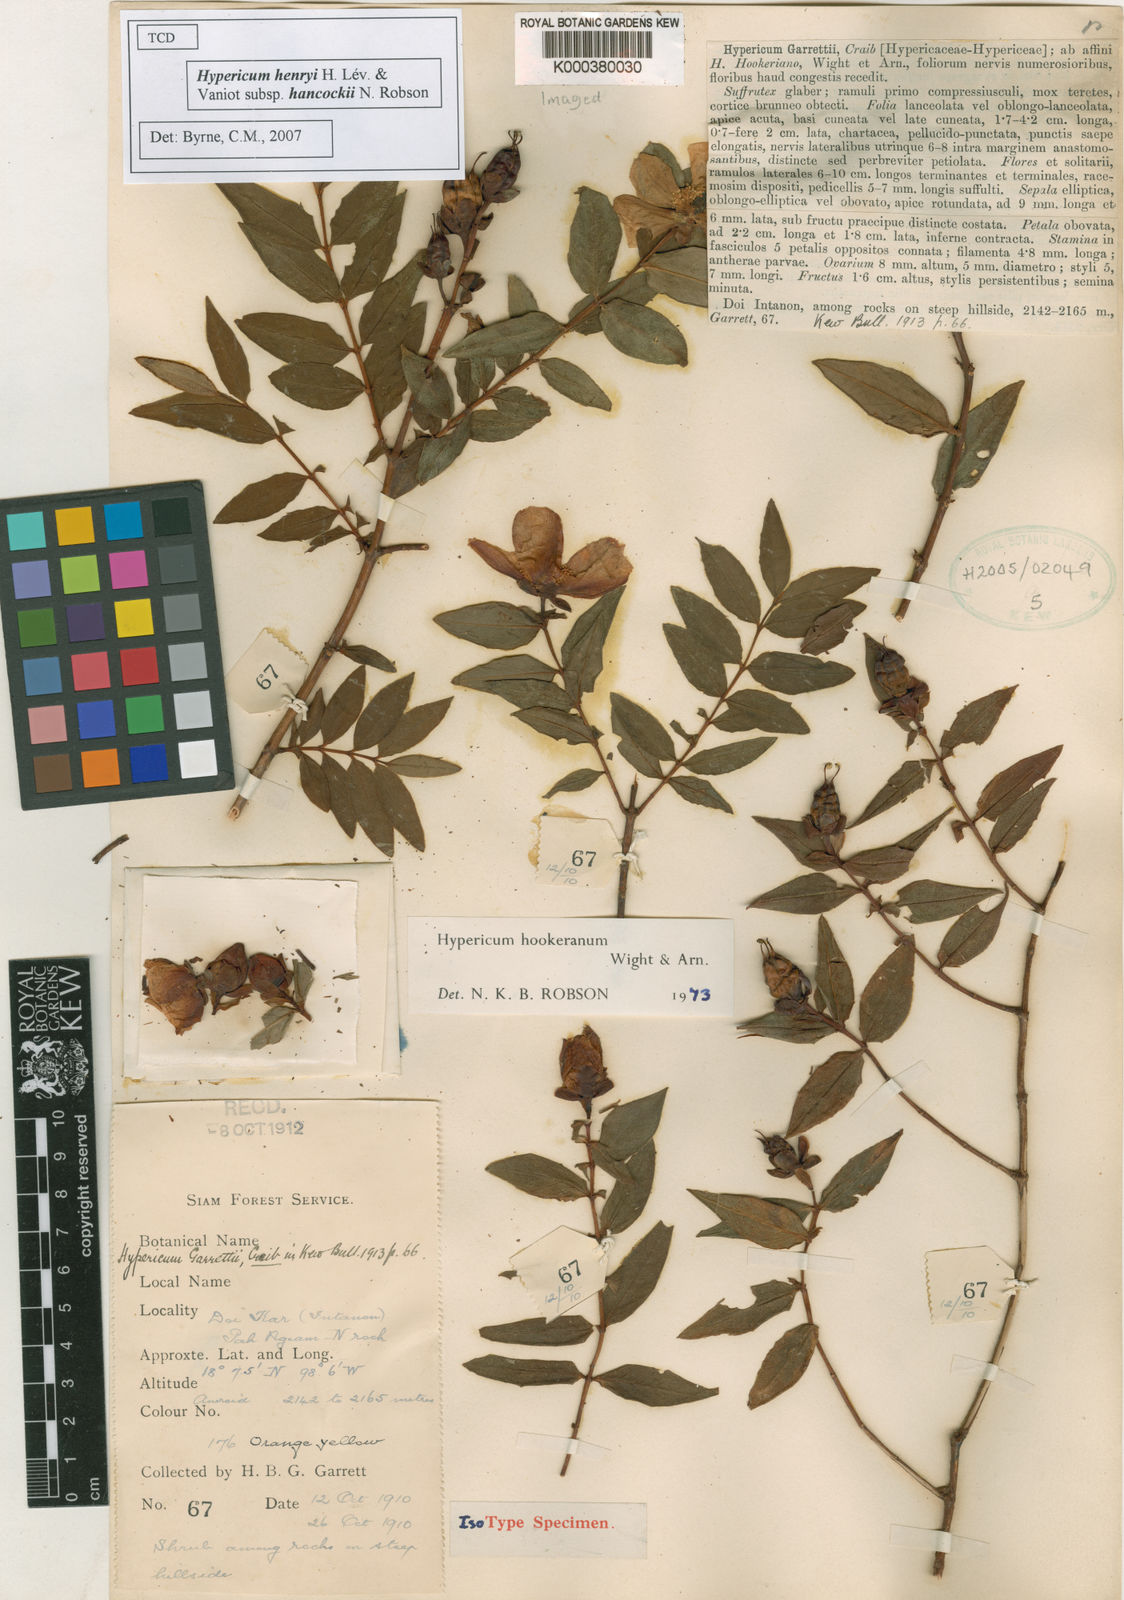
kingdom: Plantae
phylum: Tracheophyta
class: Magnoliopsida
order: Malpighiales
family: Hypericaceae
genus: Hypericum
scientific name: Hypericum
